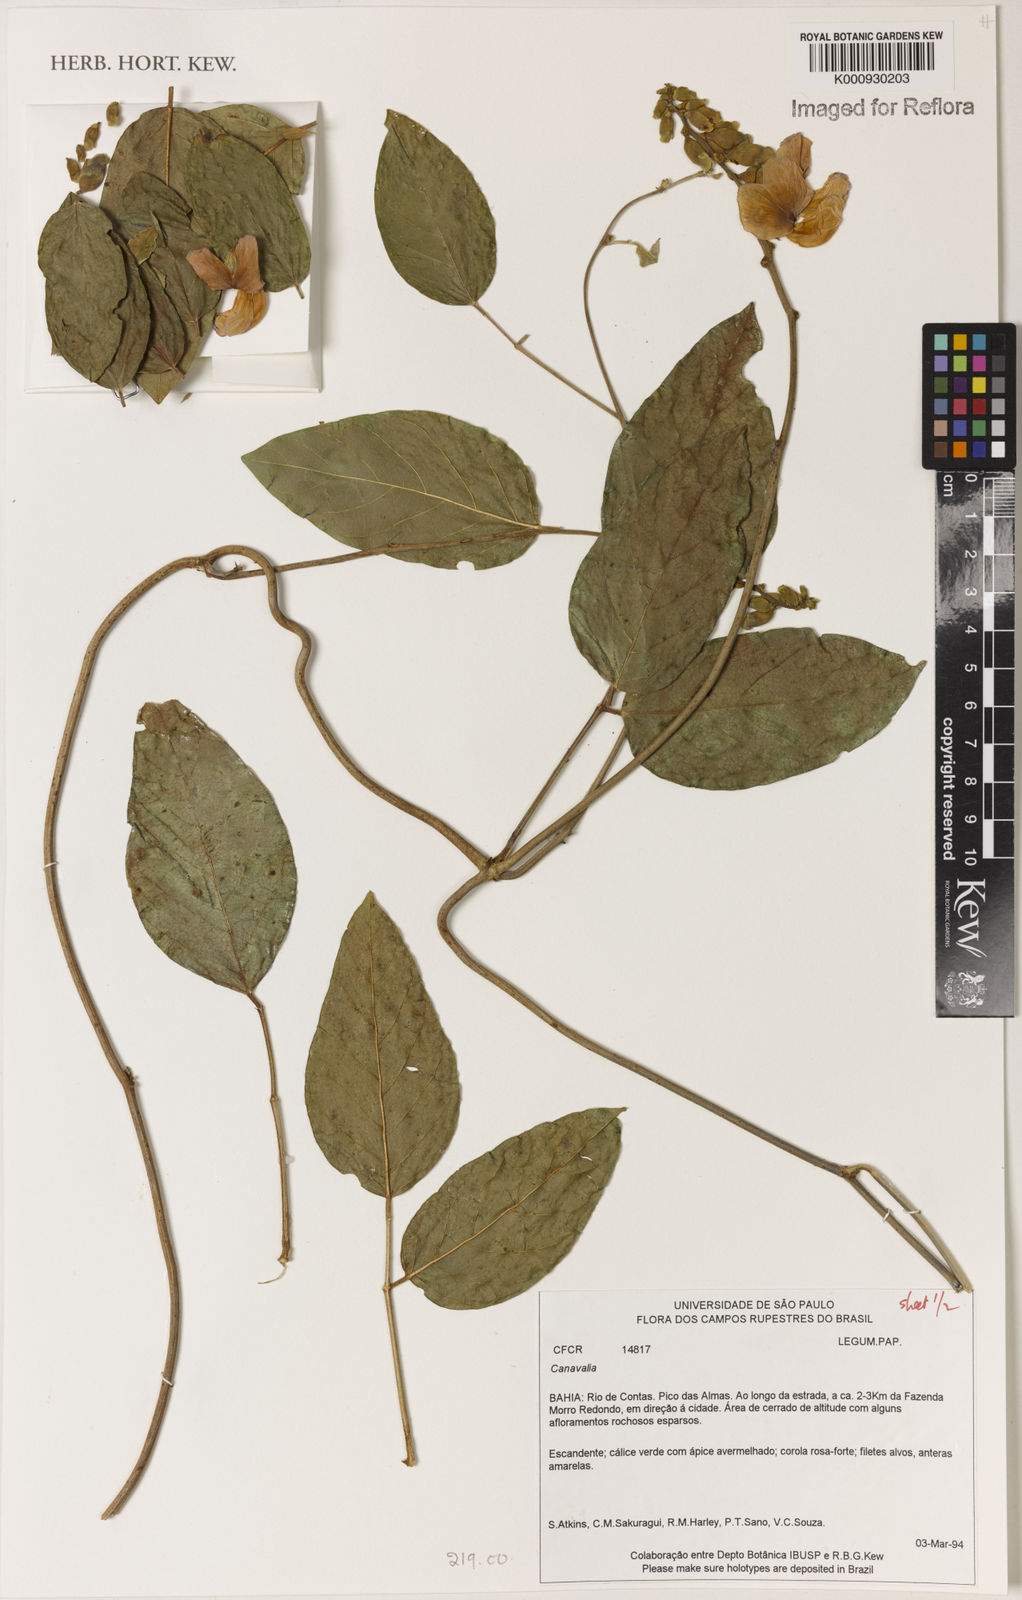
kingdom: Plantae
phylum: Tracheophyta
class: Magnoliopsida
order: Fabales
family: Fabaceae
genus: Canavalia
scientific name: Canavalia
